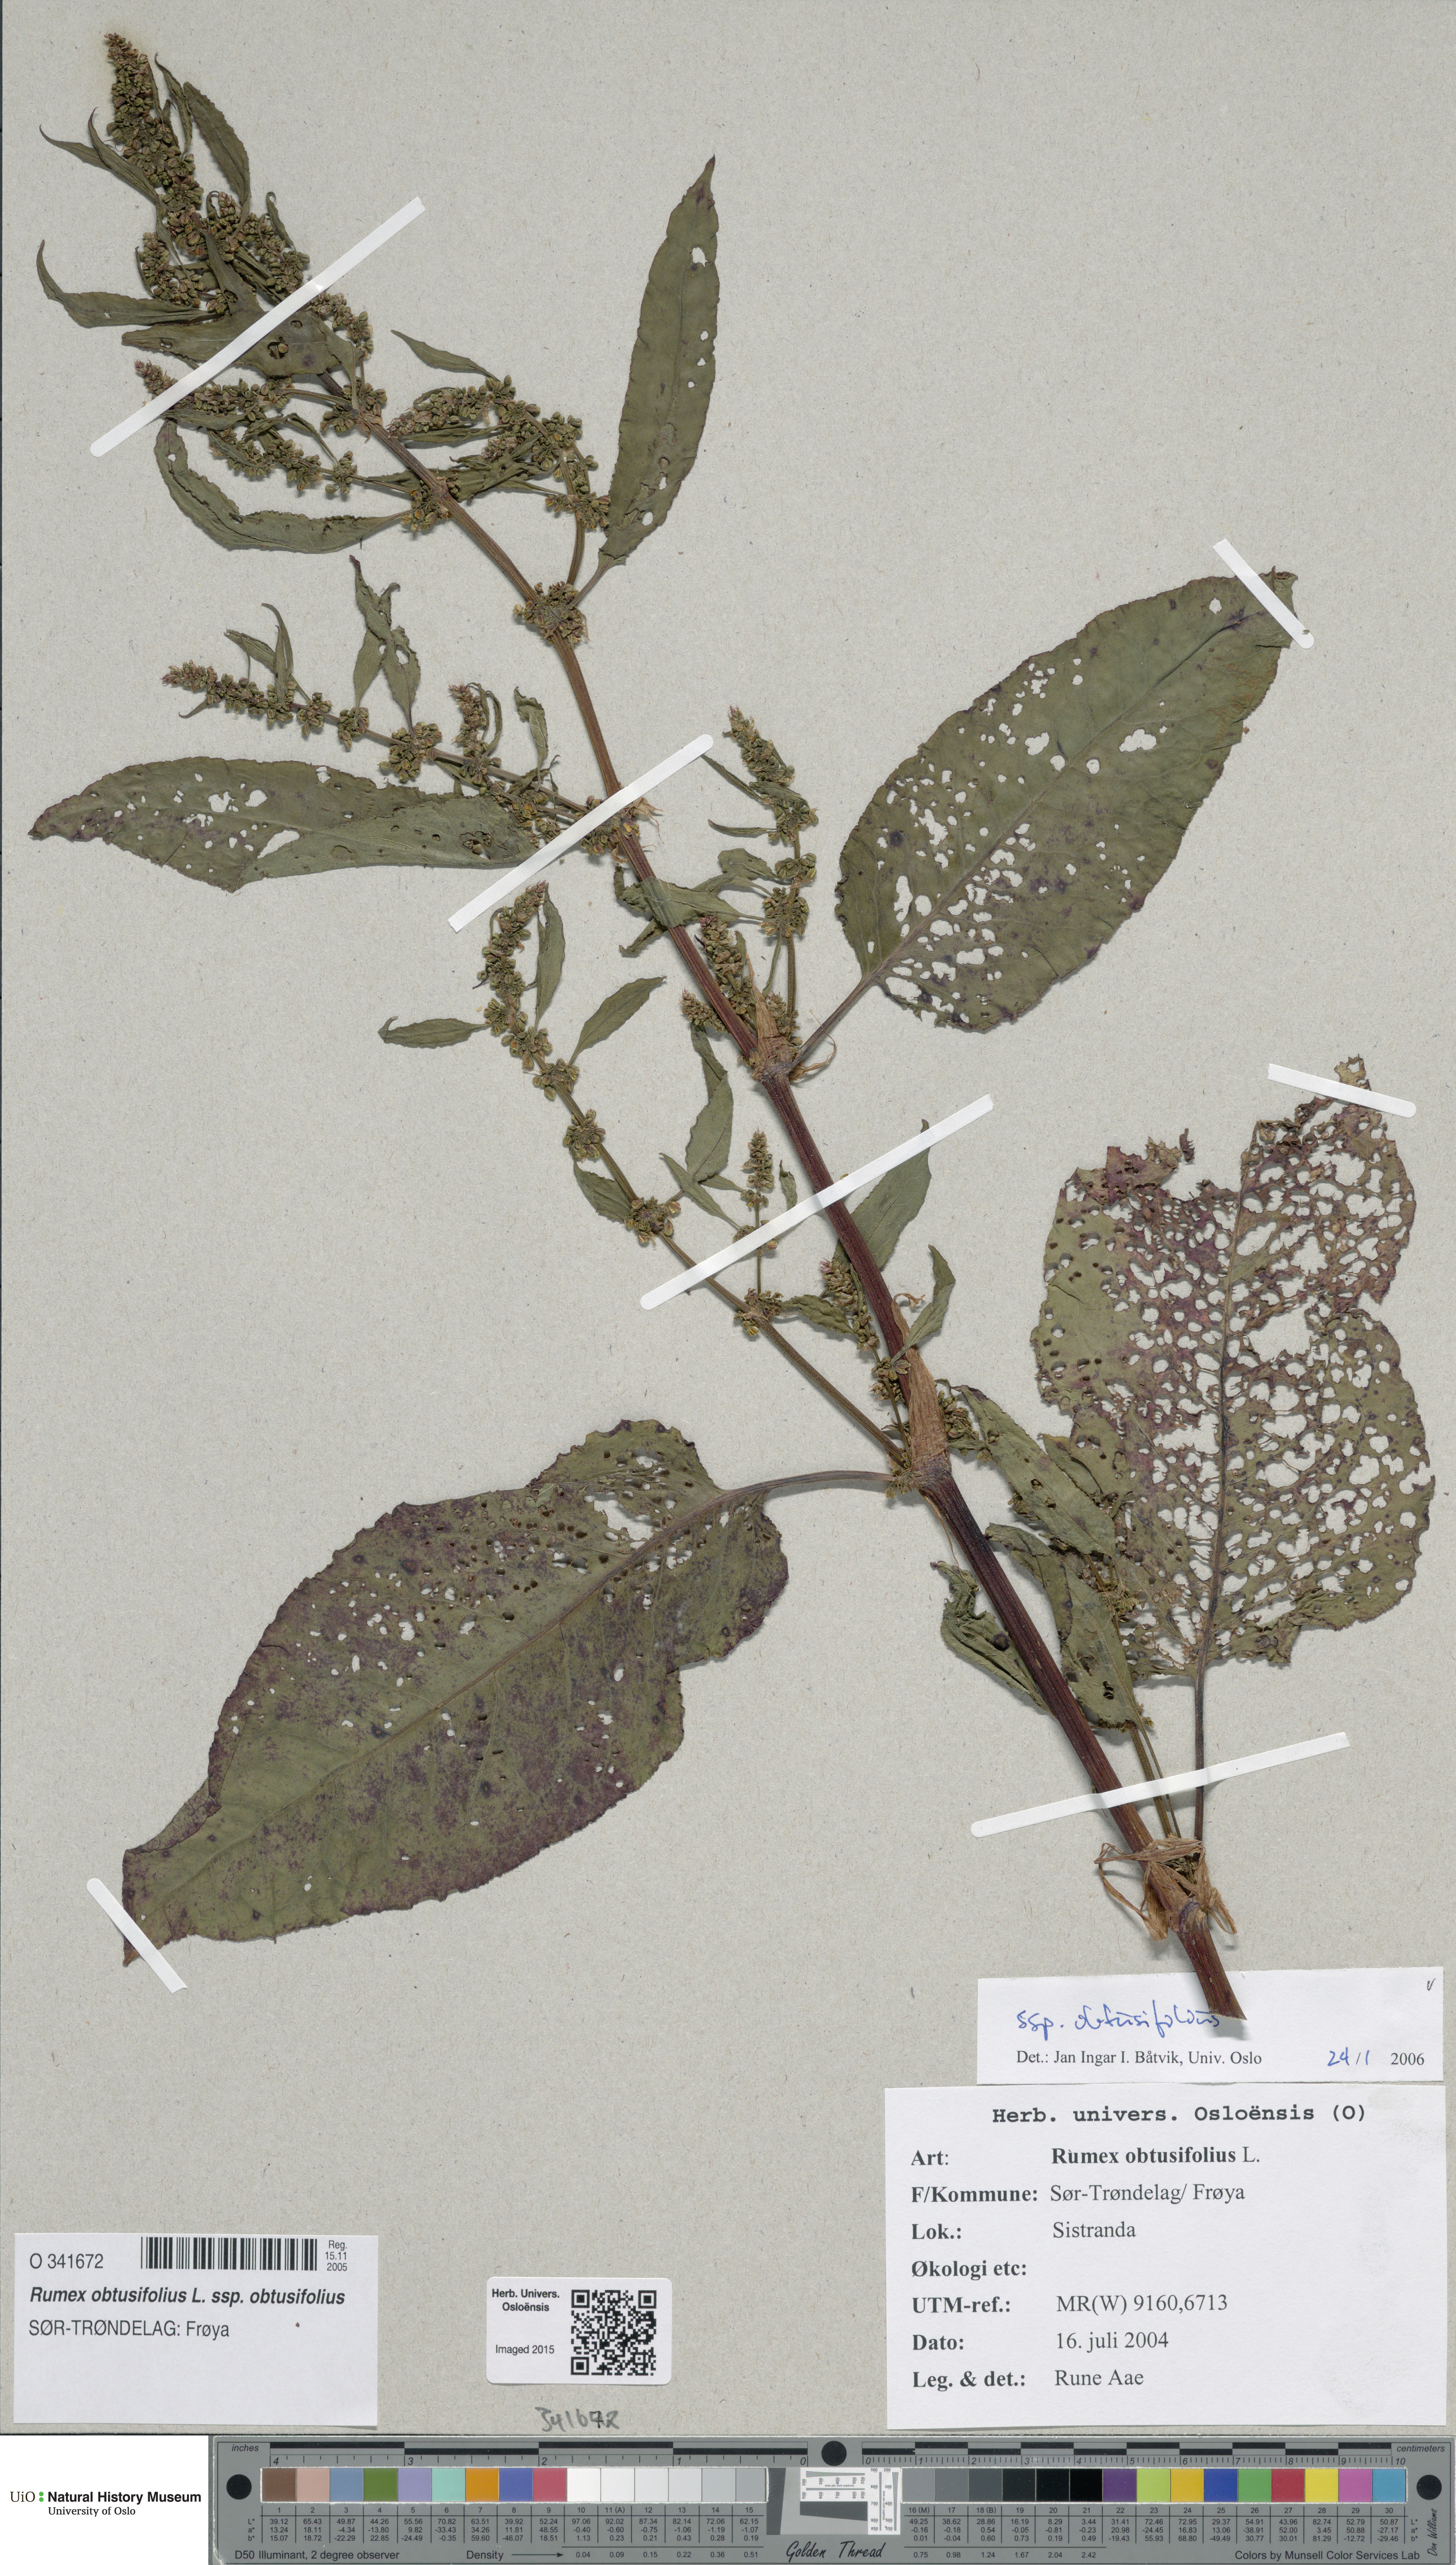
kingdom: Plantae
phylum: Tracheophyta
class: Magnoliopsida
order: Caryophyllales
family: Polygonaceae
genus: Rumex
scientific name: Rumex obtusifolius
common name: Bitter dock
